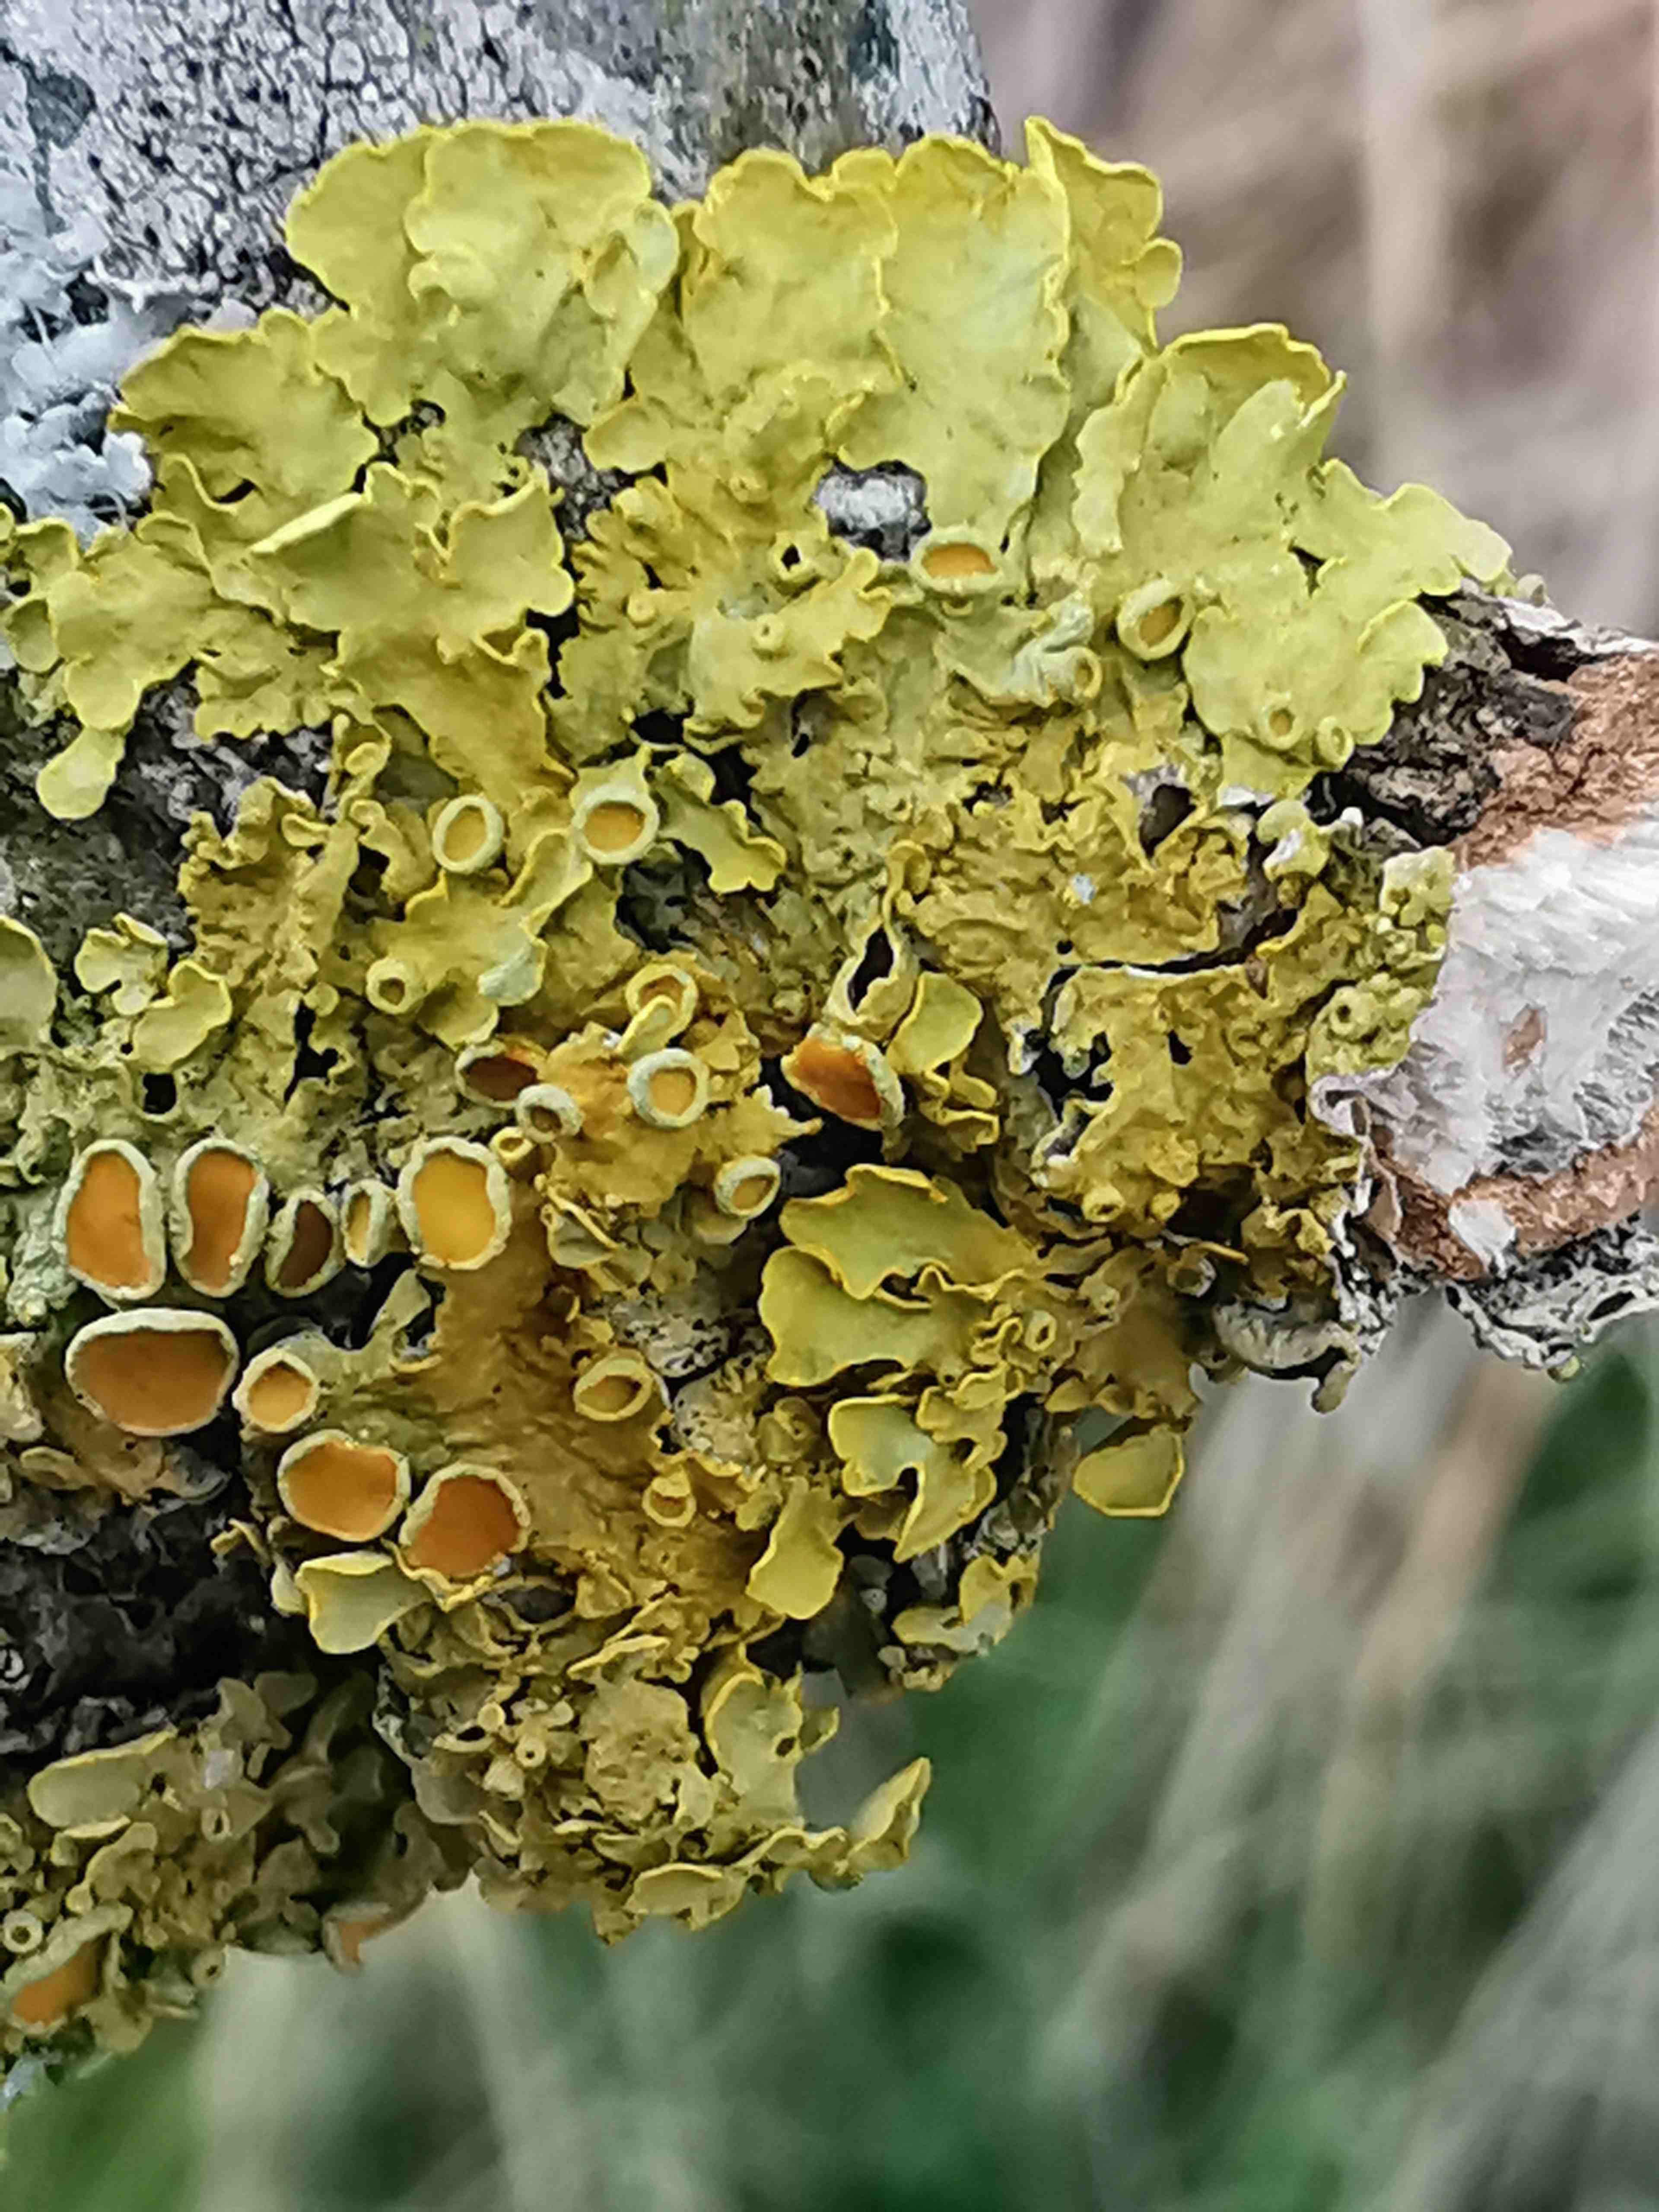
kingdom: Fungi
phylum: Ascomycota
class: Lecanoromycetes
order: Teloschistales
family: Teloschistaceae
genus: Xanthoria
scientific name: Xanthoria parietina
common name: almindelig væggelav
